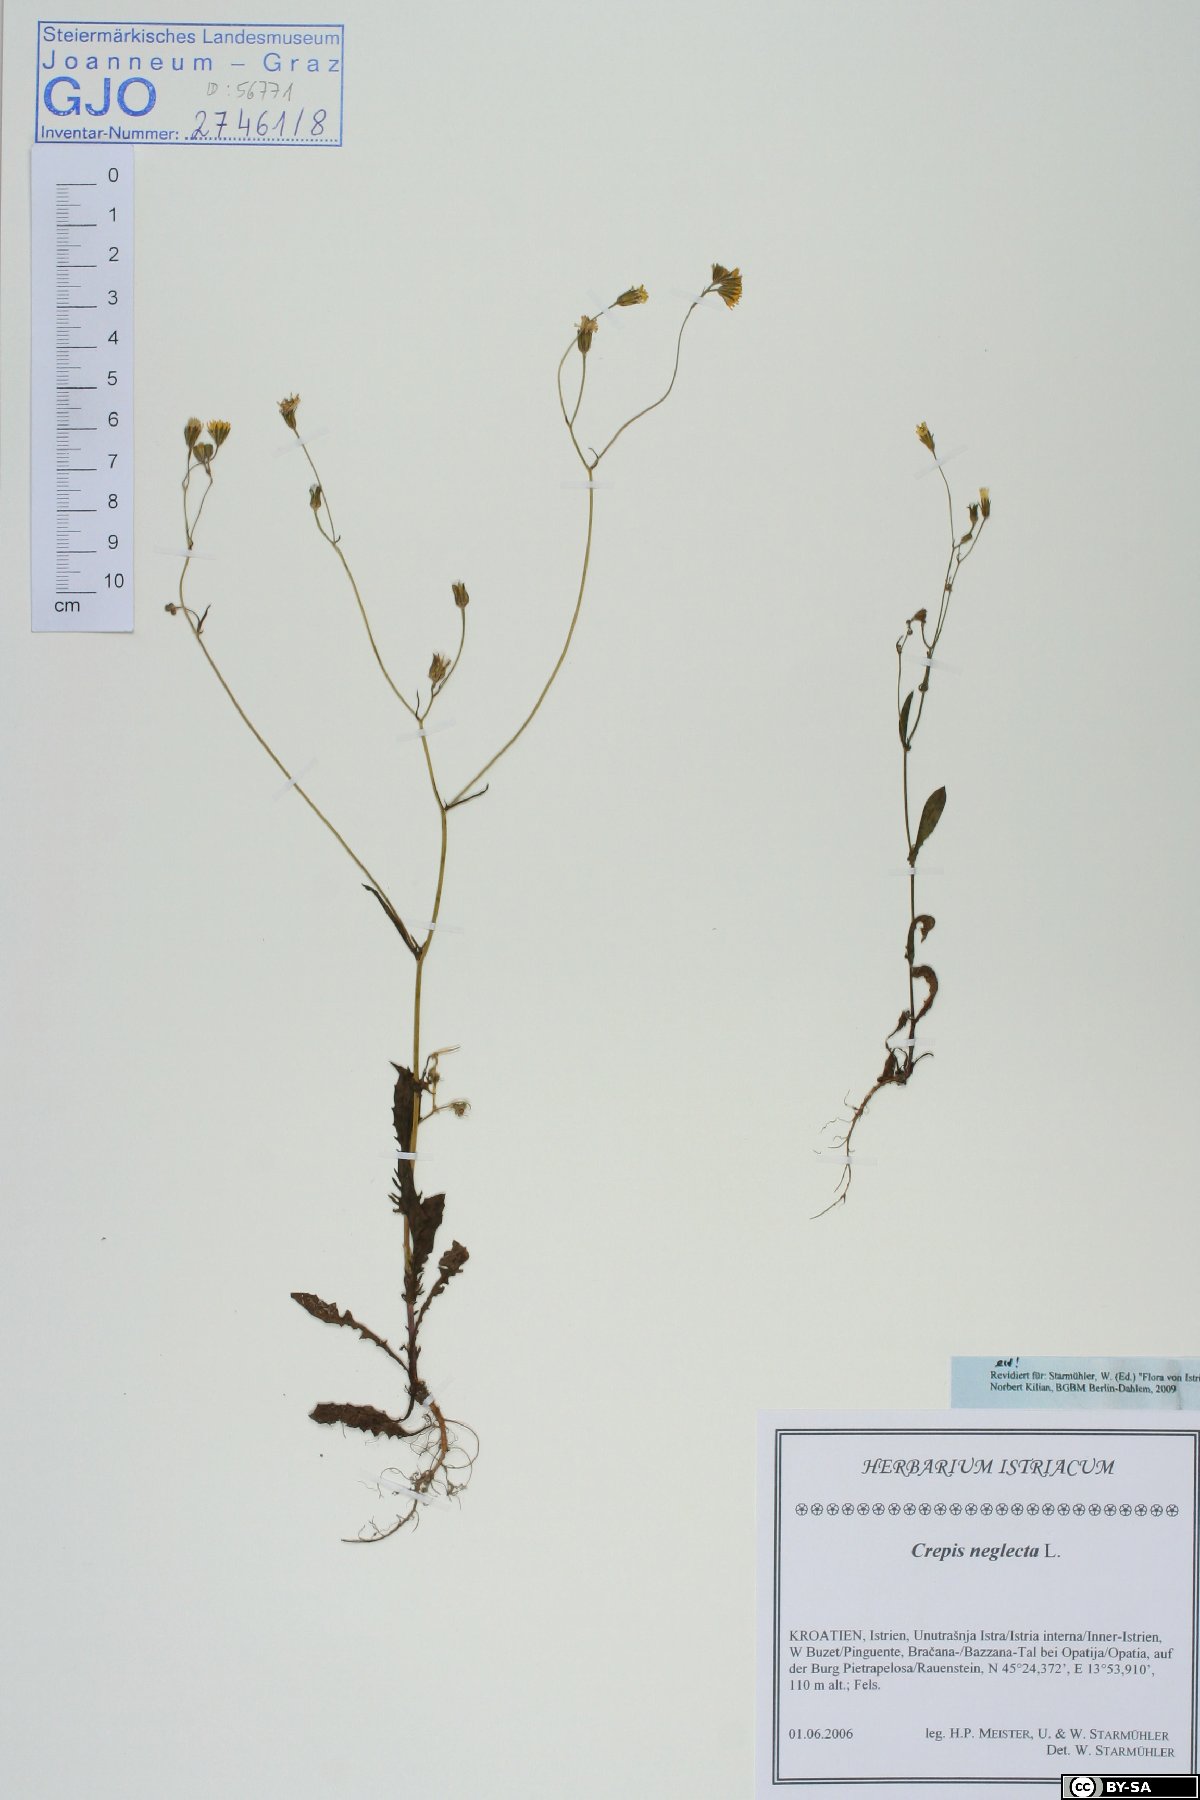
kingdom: Plantae
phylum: Tracheophyta
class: Magnoliopsida
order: Asterales
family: Asteraceae
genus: Crepis
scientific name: Crepis neglecta
